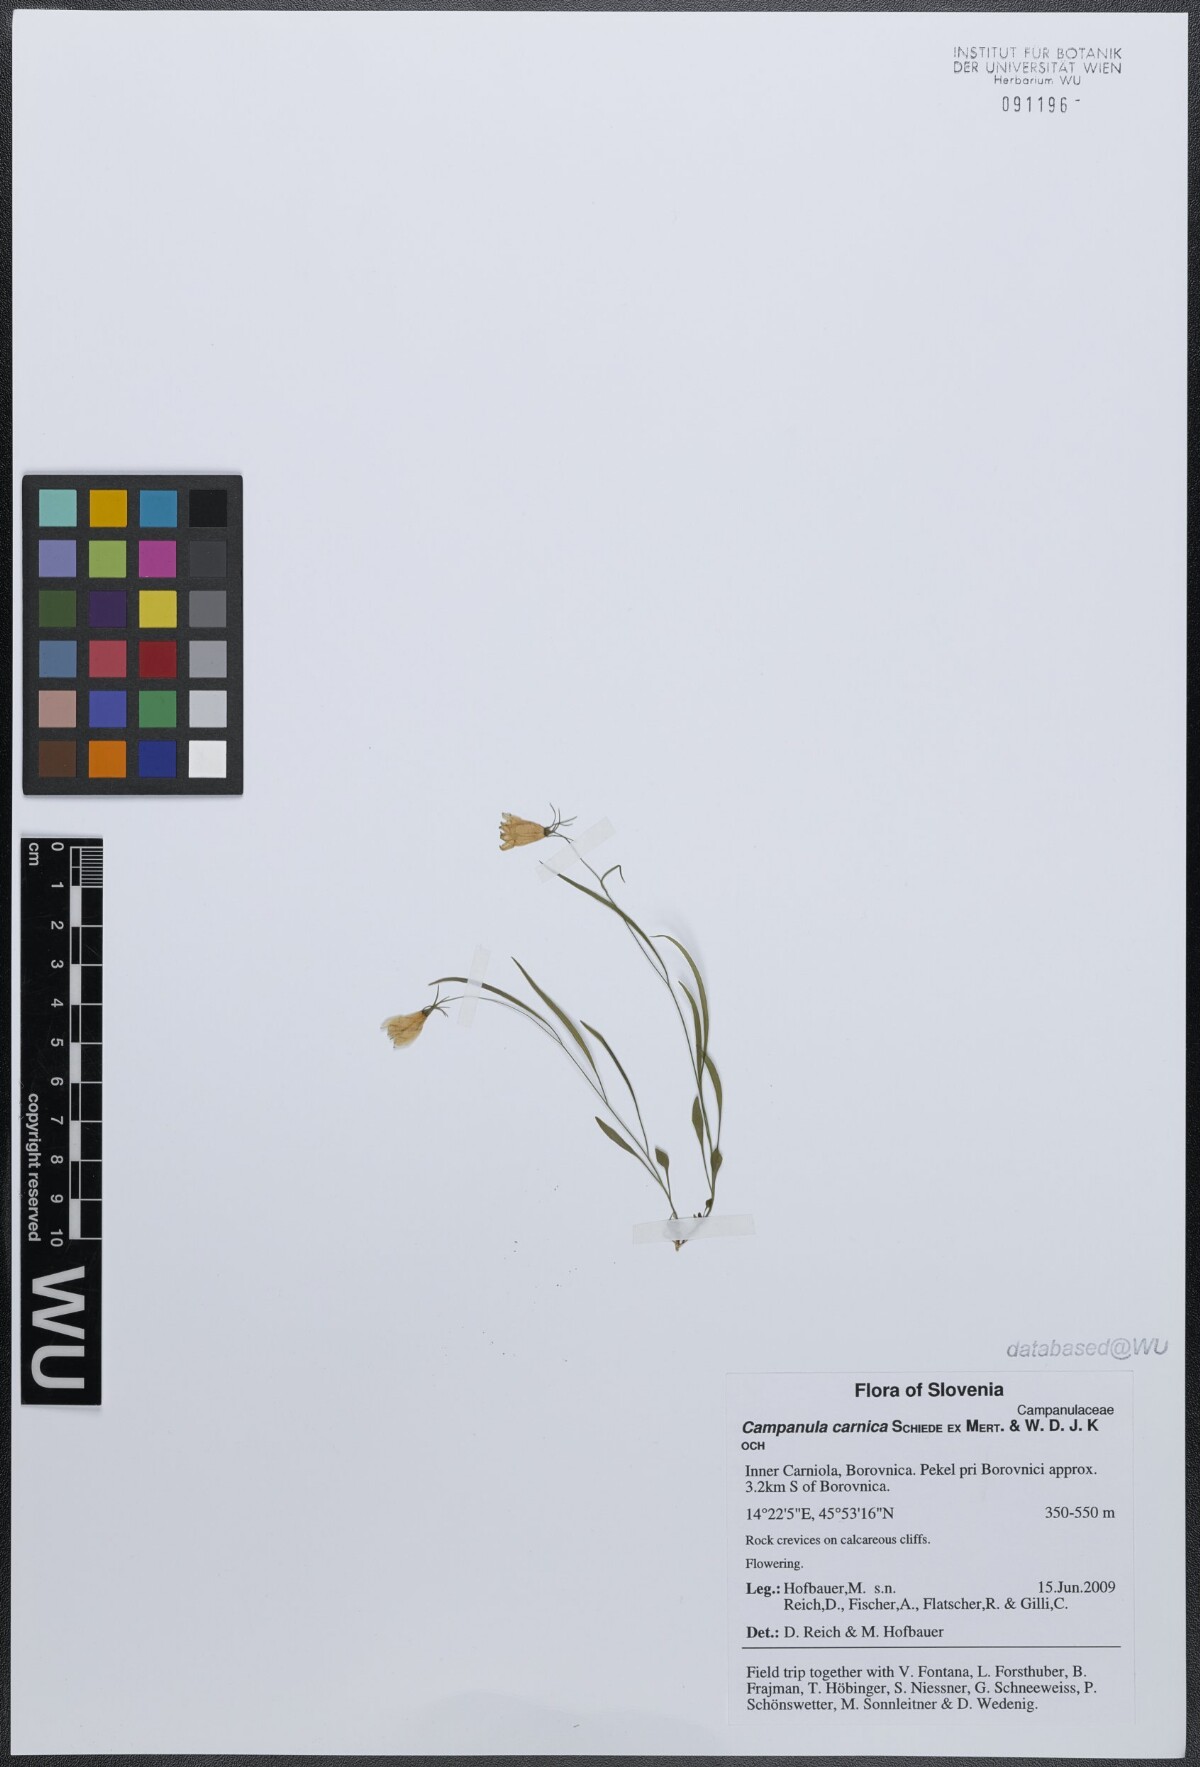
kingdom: Plantae
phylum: Tracheophyta
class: Magnoliopsida
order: Asterales
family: Campanulaceae
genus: Campanula
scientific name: Campanula carnica
